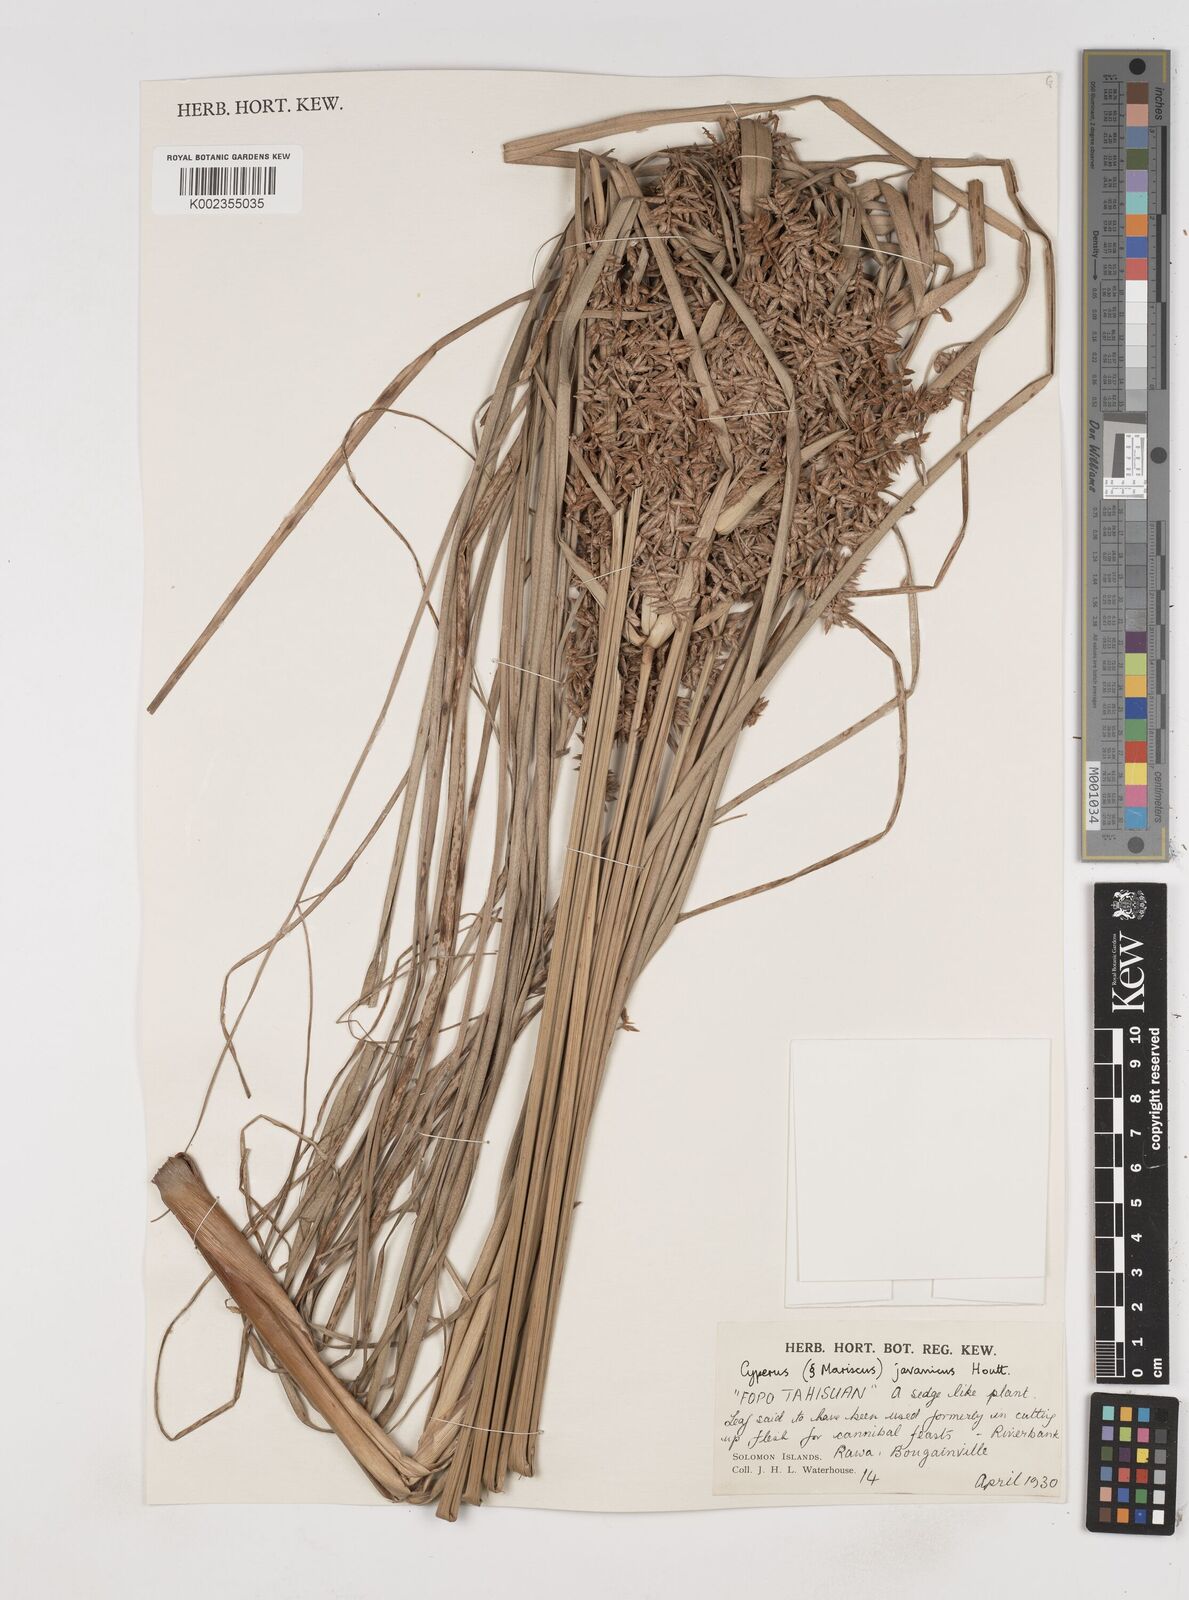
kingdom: Plantae
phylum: Tracheophyta
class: Liliopsida
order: Poales
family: Cyperaceae
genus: Cyperus
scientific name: Cyperus javanicus
